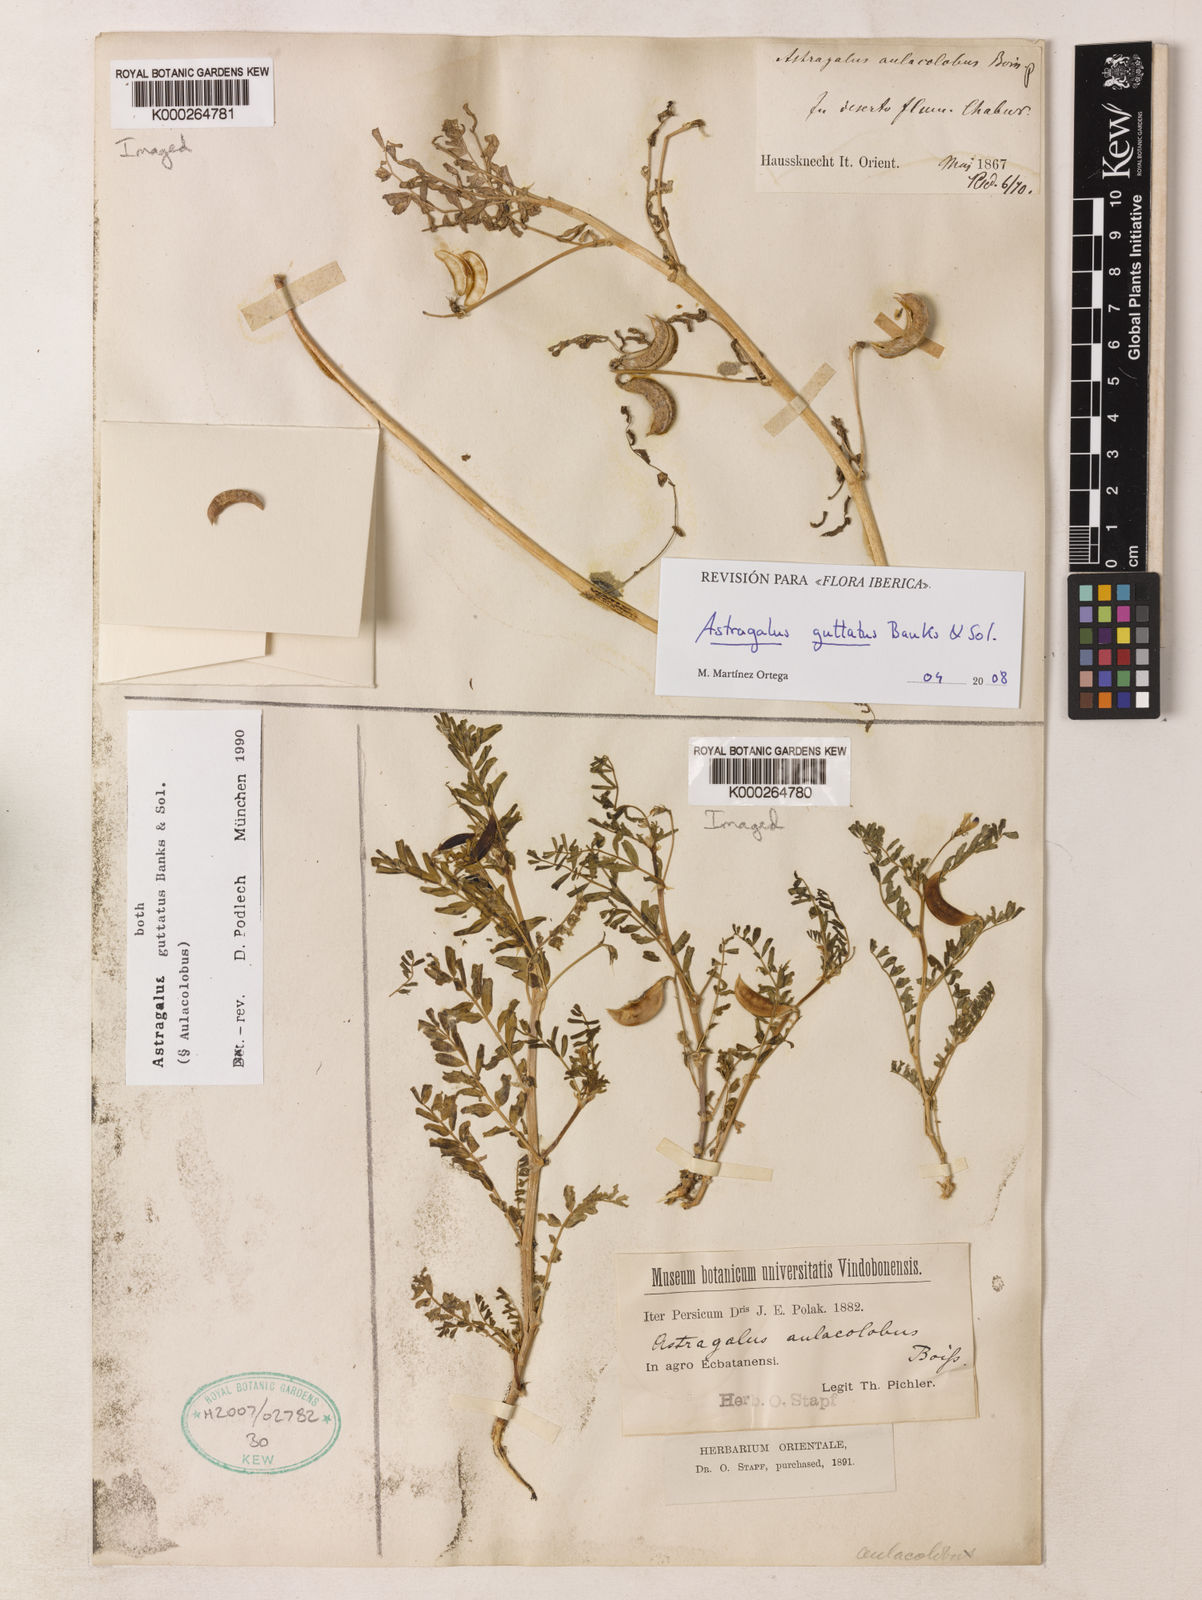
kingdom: Plantae
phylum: Tracheophyta
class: Magnoliopsida
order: Fabales
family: Fabaceae
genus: Astragalus
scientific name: Astragalus guttatus
